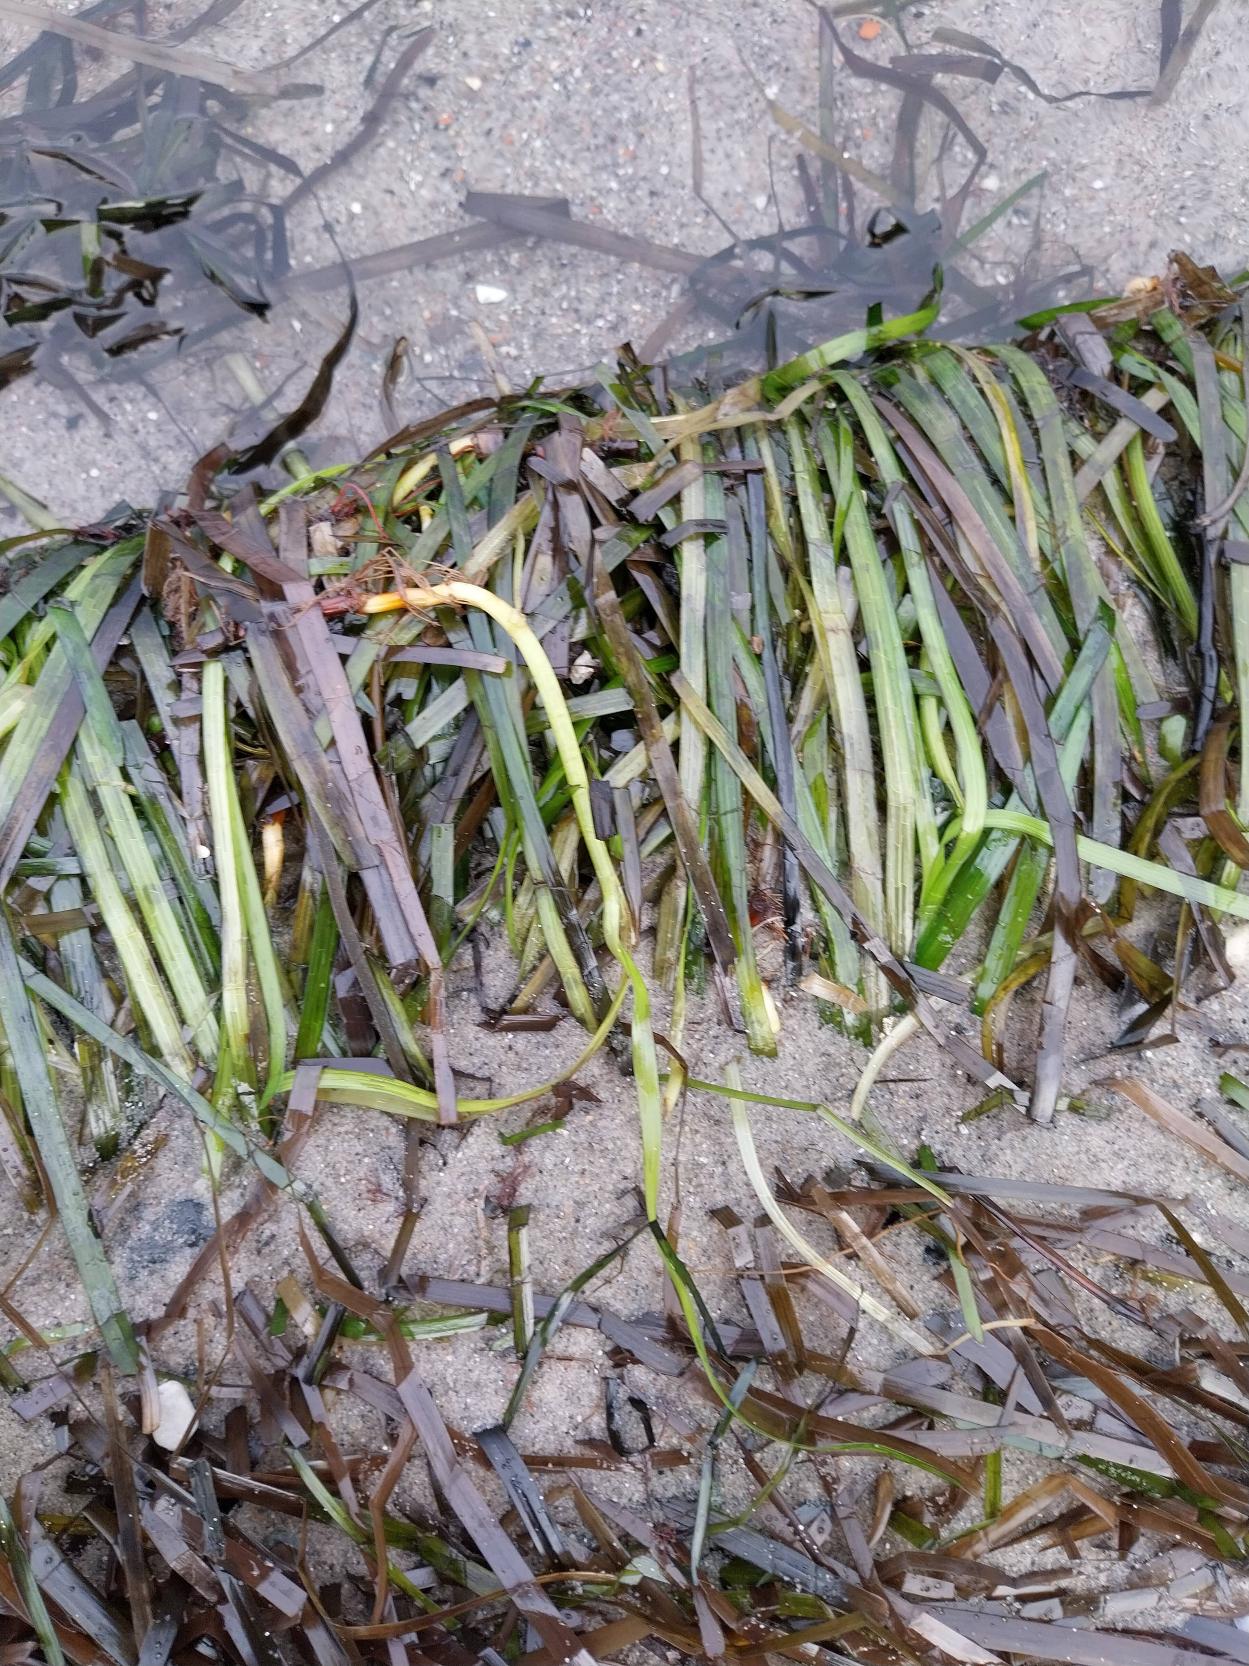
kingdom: Plantae
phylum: Tracheophyta
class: Liliopsida
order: Alismatales
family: Zosteraceae
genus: Zostera
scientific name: Zostera marina
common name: Almindelig bændeltang
